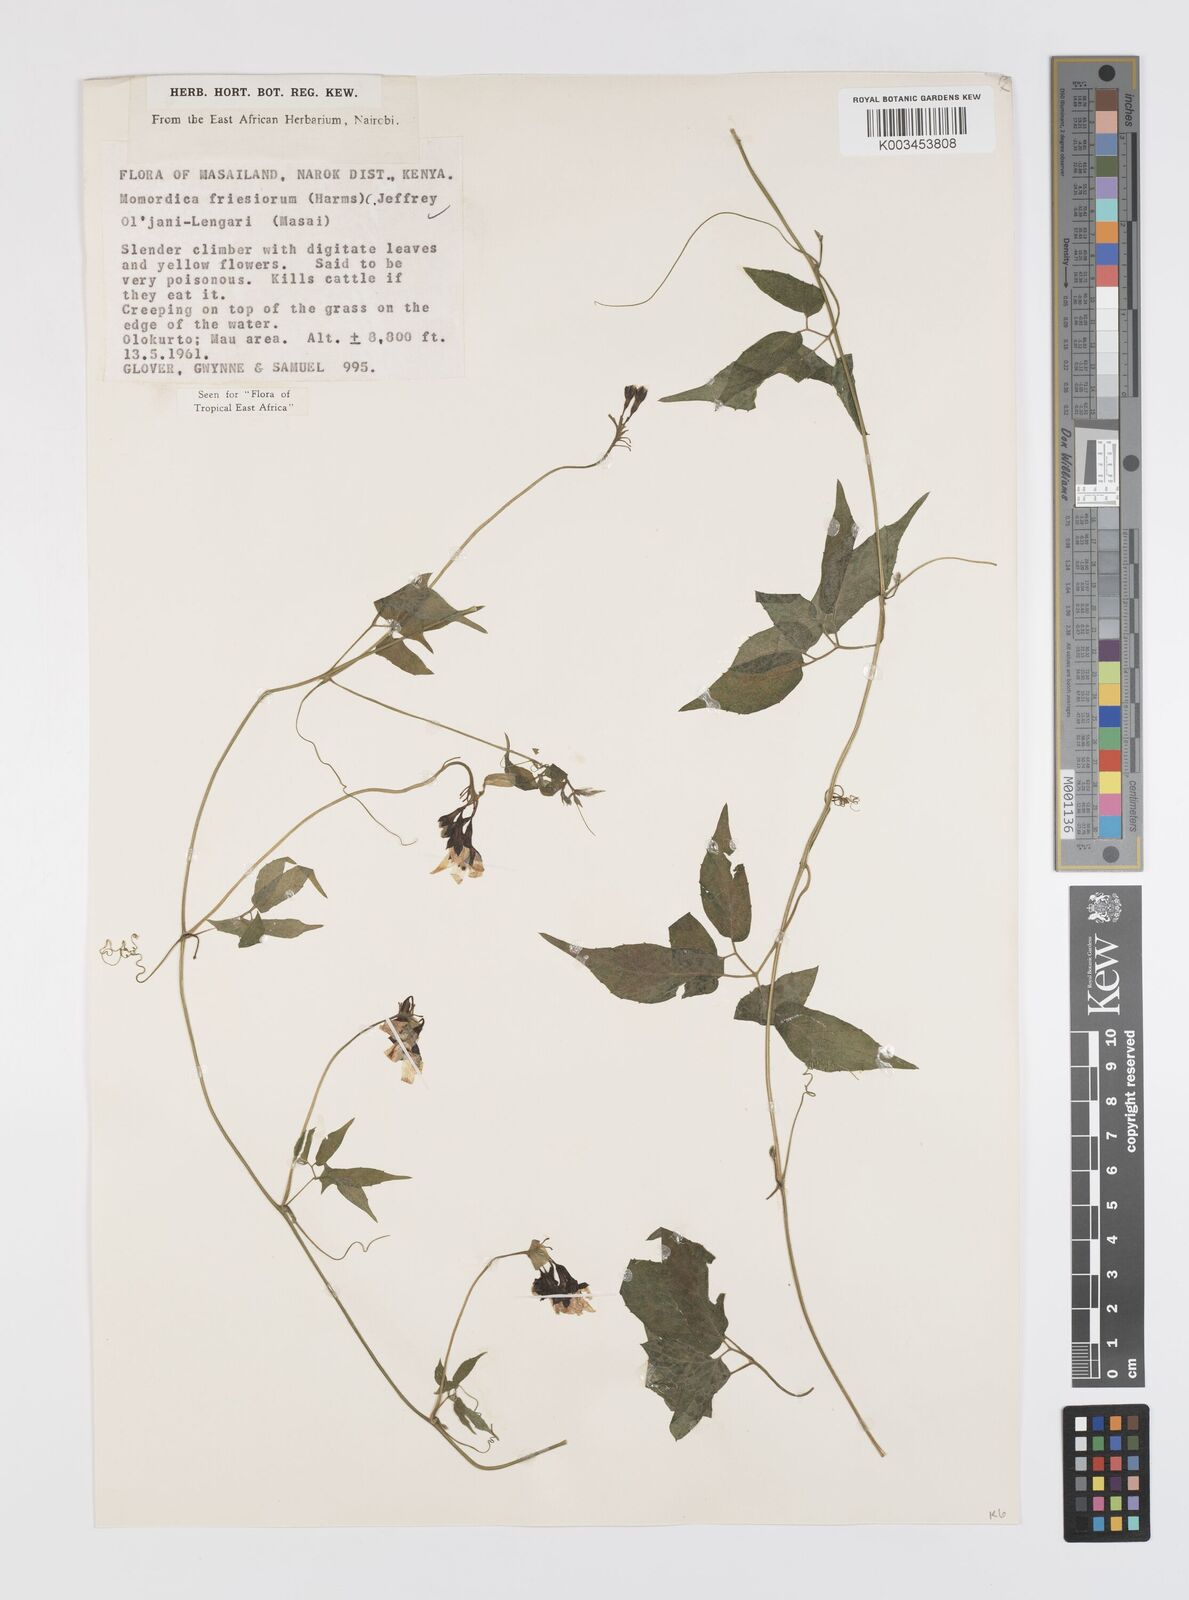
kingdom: Plantae
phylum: Tracheophyta
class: Magnoliopsida
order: Cucurbitales
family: Cucurbitaceae
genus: Momordica
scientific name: Momordica friesiorum
